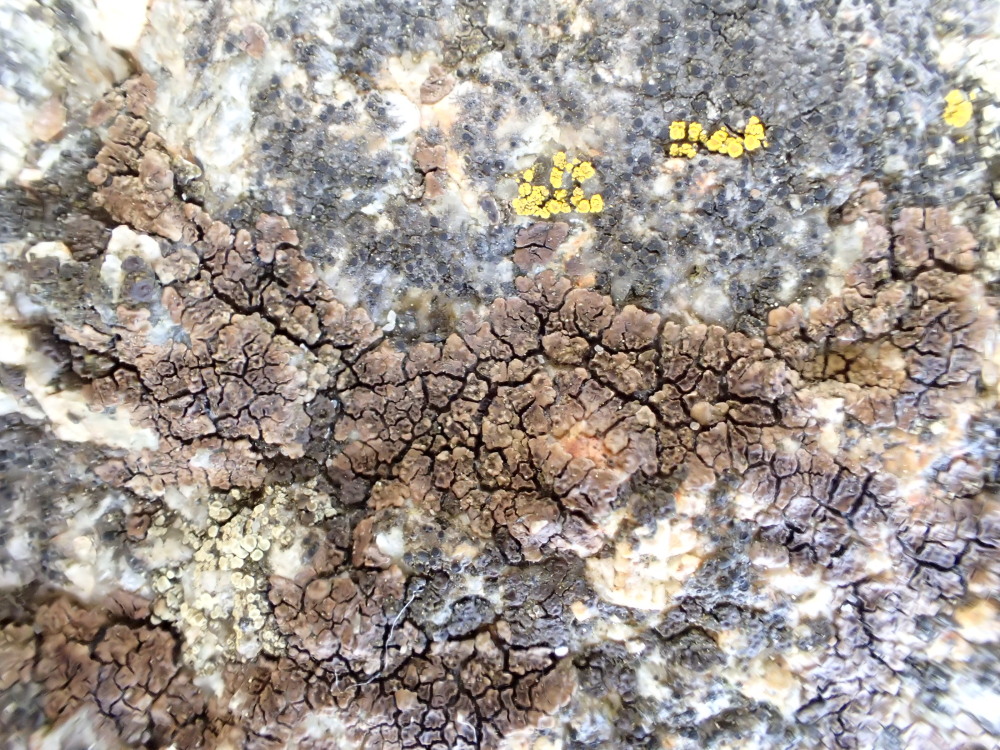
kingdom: Fungi
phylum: Ascomycota
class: Lecanoromycetes
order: Acarosporales
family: Acarosporaceae
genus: Acarospora
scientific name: Acarospora fuscata
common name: brun småsporelav
